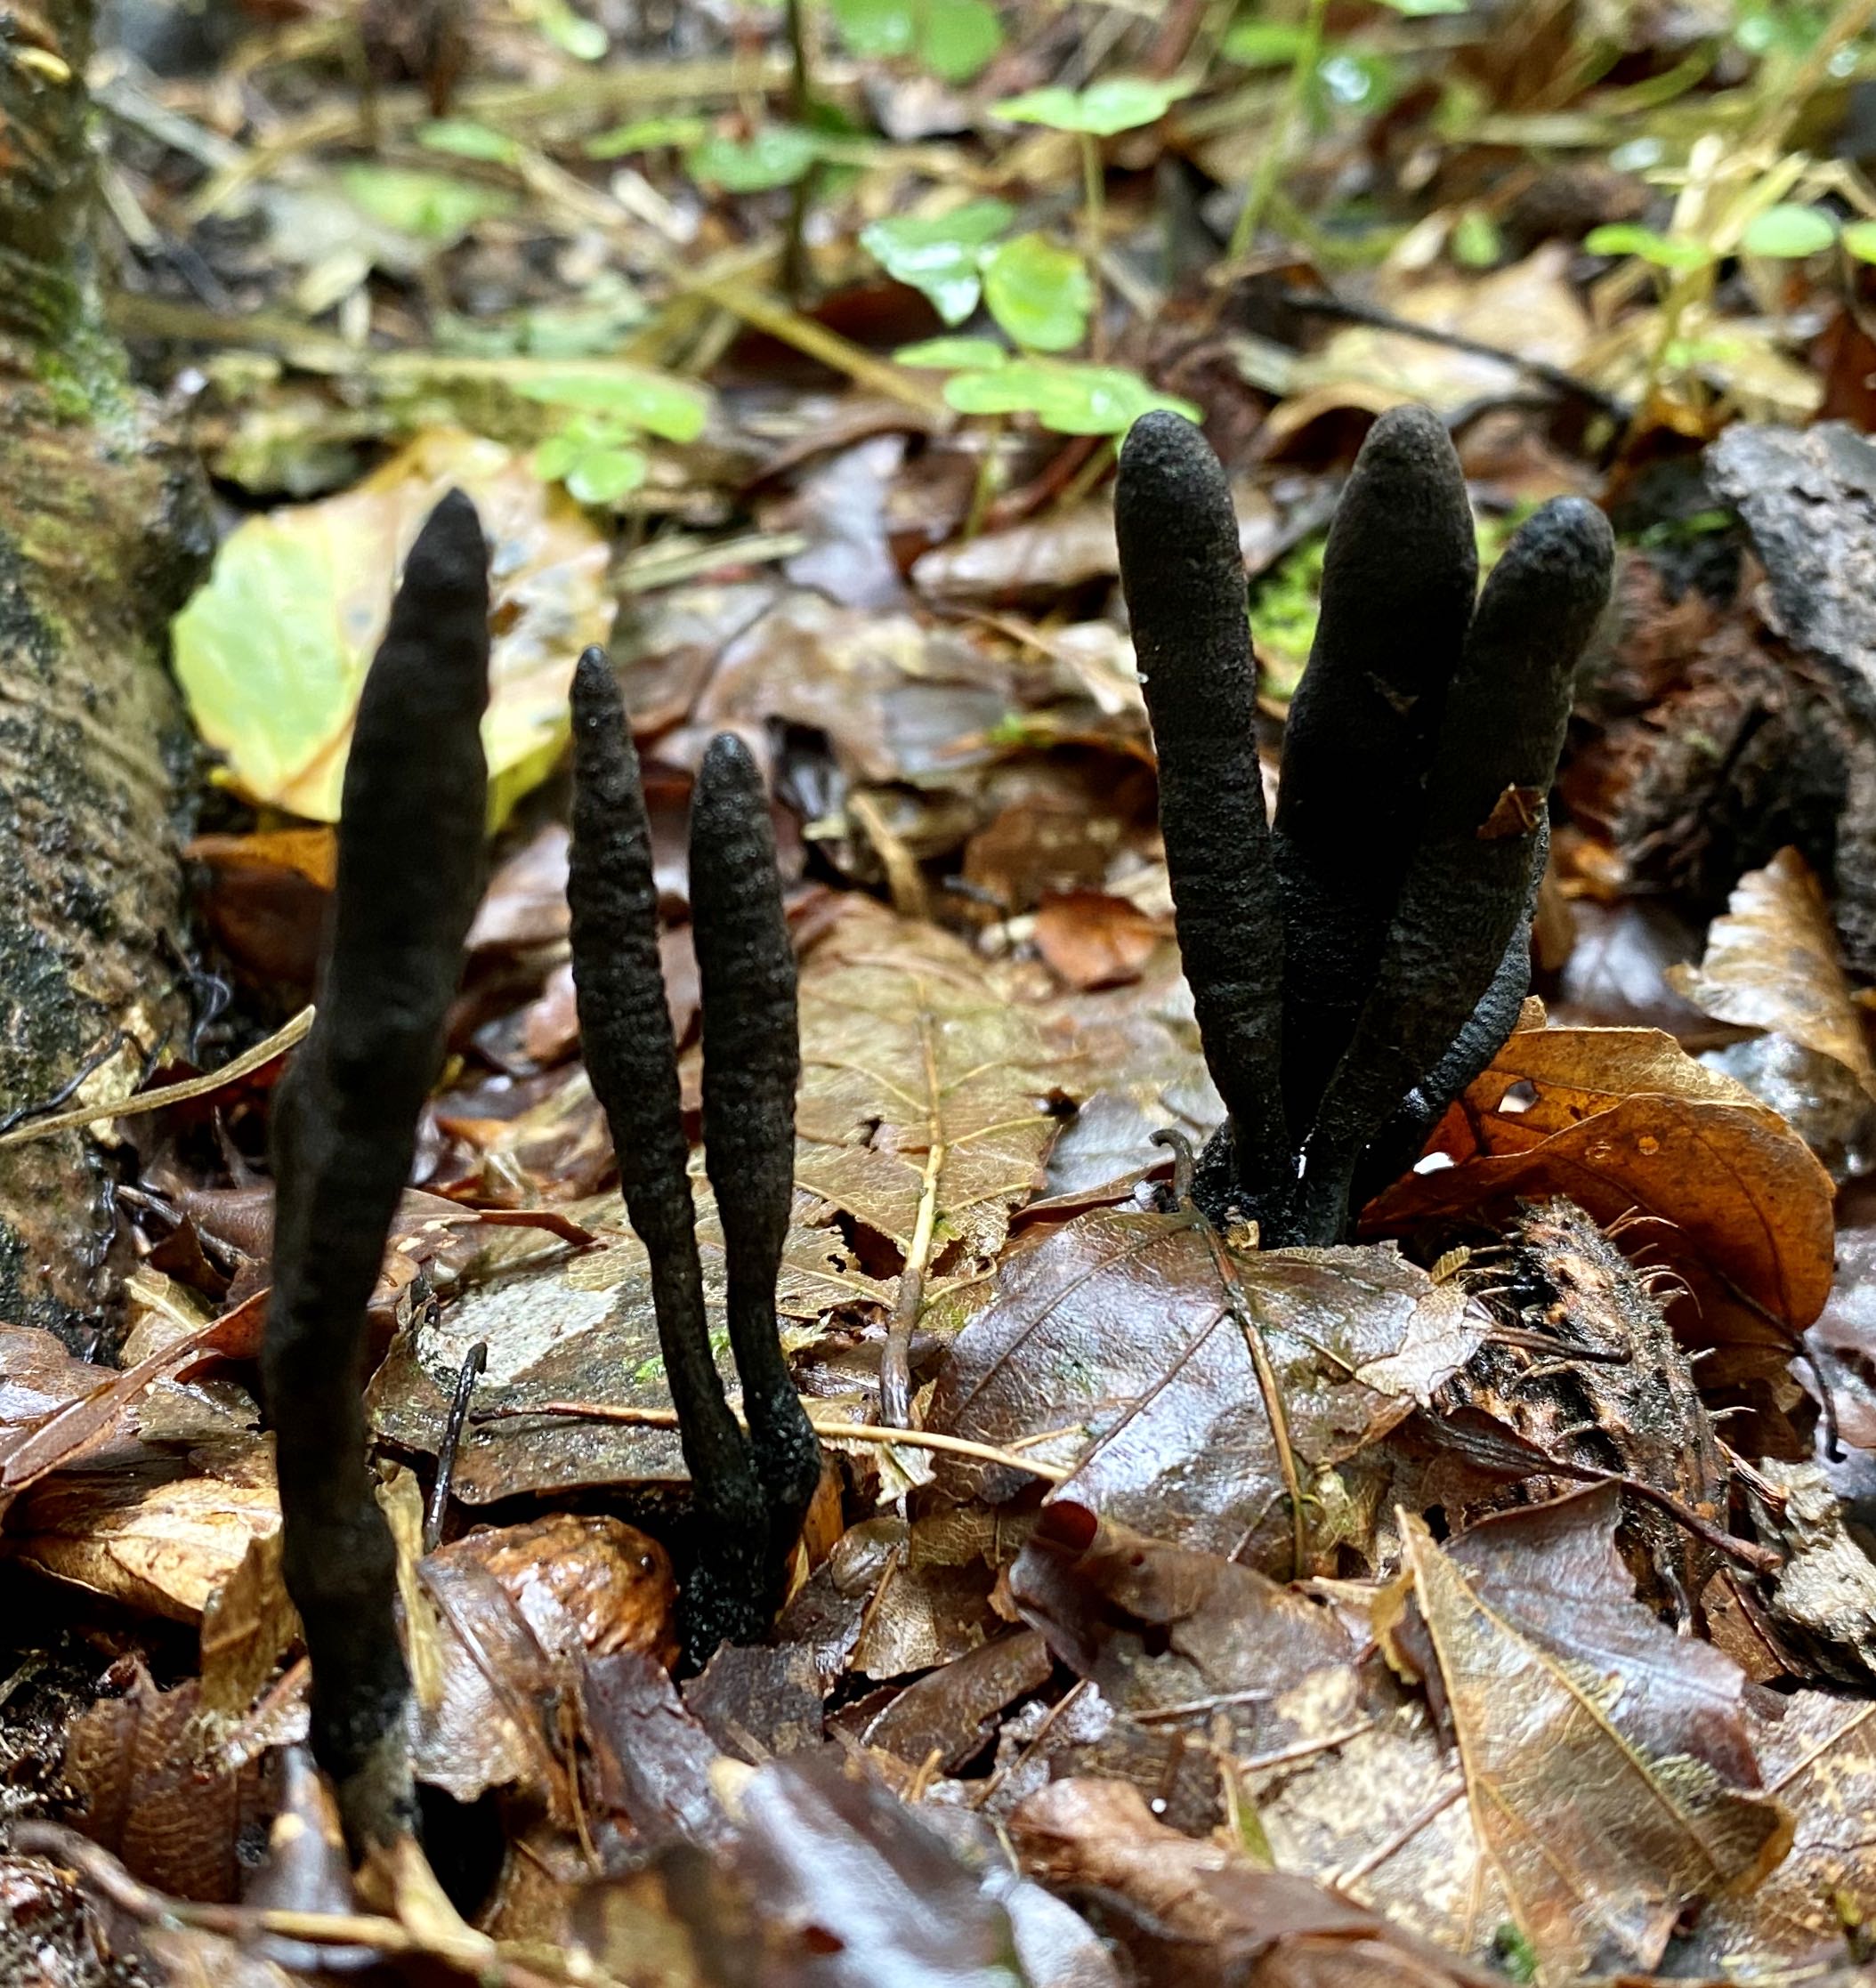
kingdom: Fungi
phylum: Ascomycota
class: Sordariomycetes
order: Xylariales
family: Xylariaceae
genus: Xylaria
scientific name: Xylaria longipes
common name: slank stødsvamp
